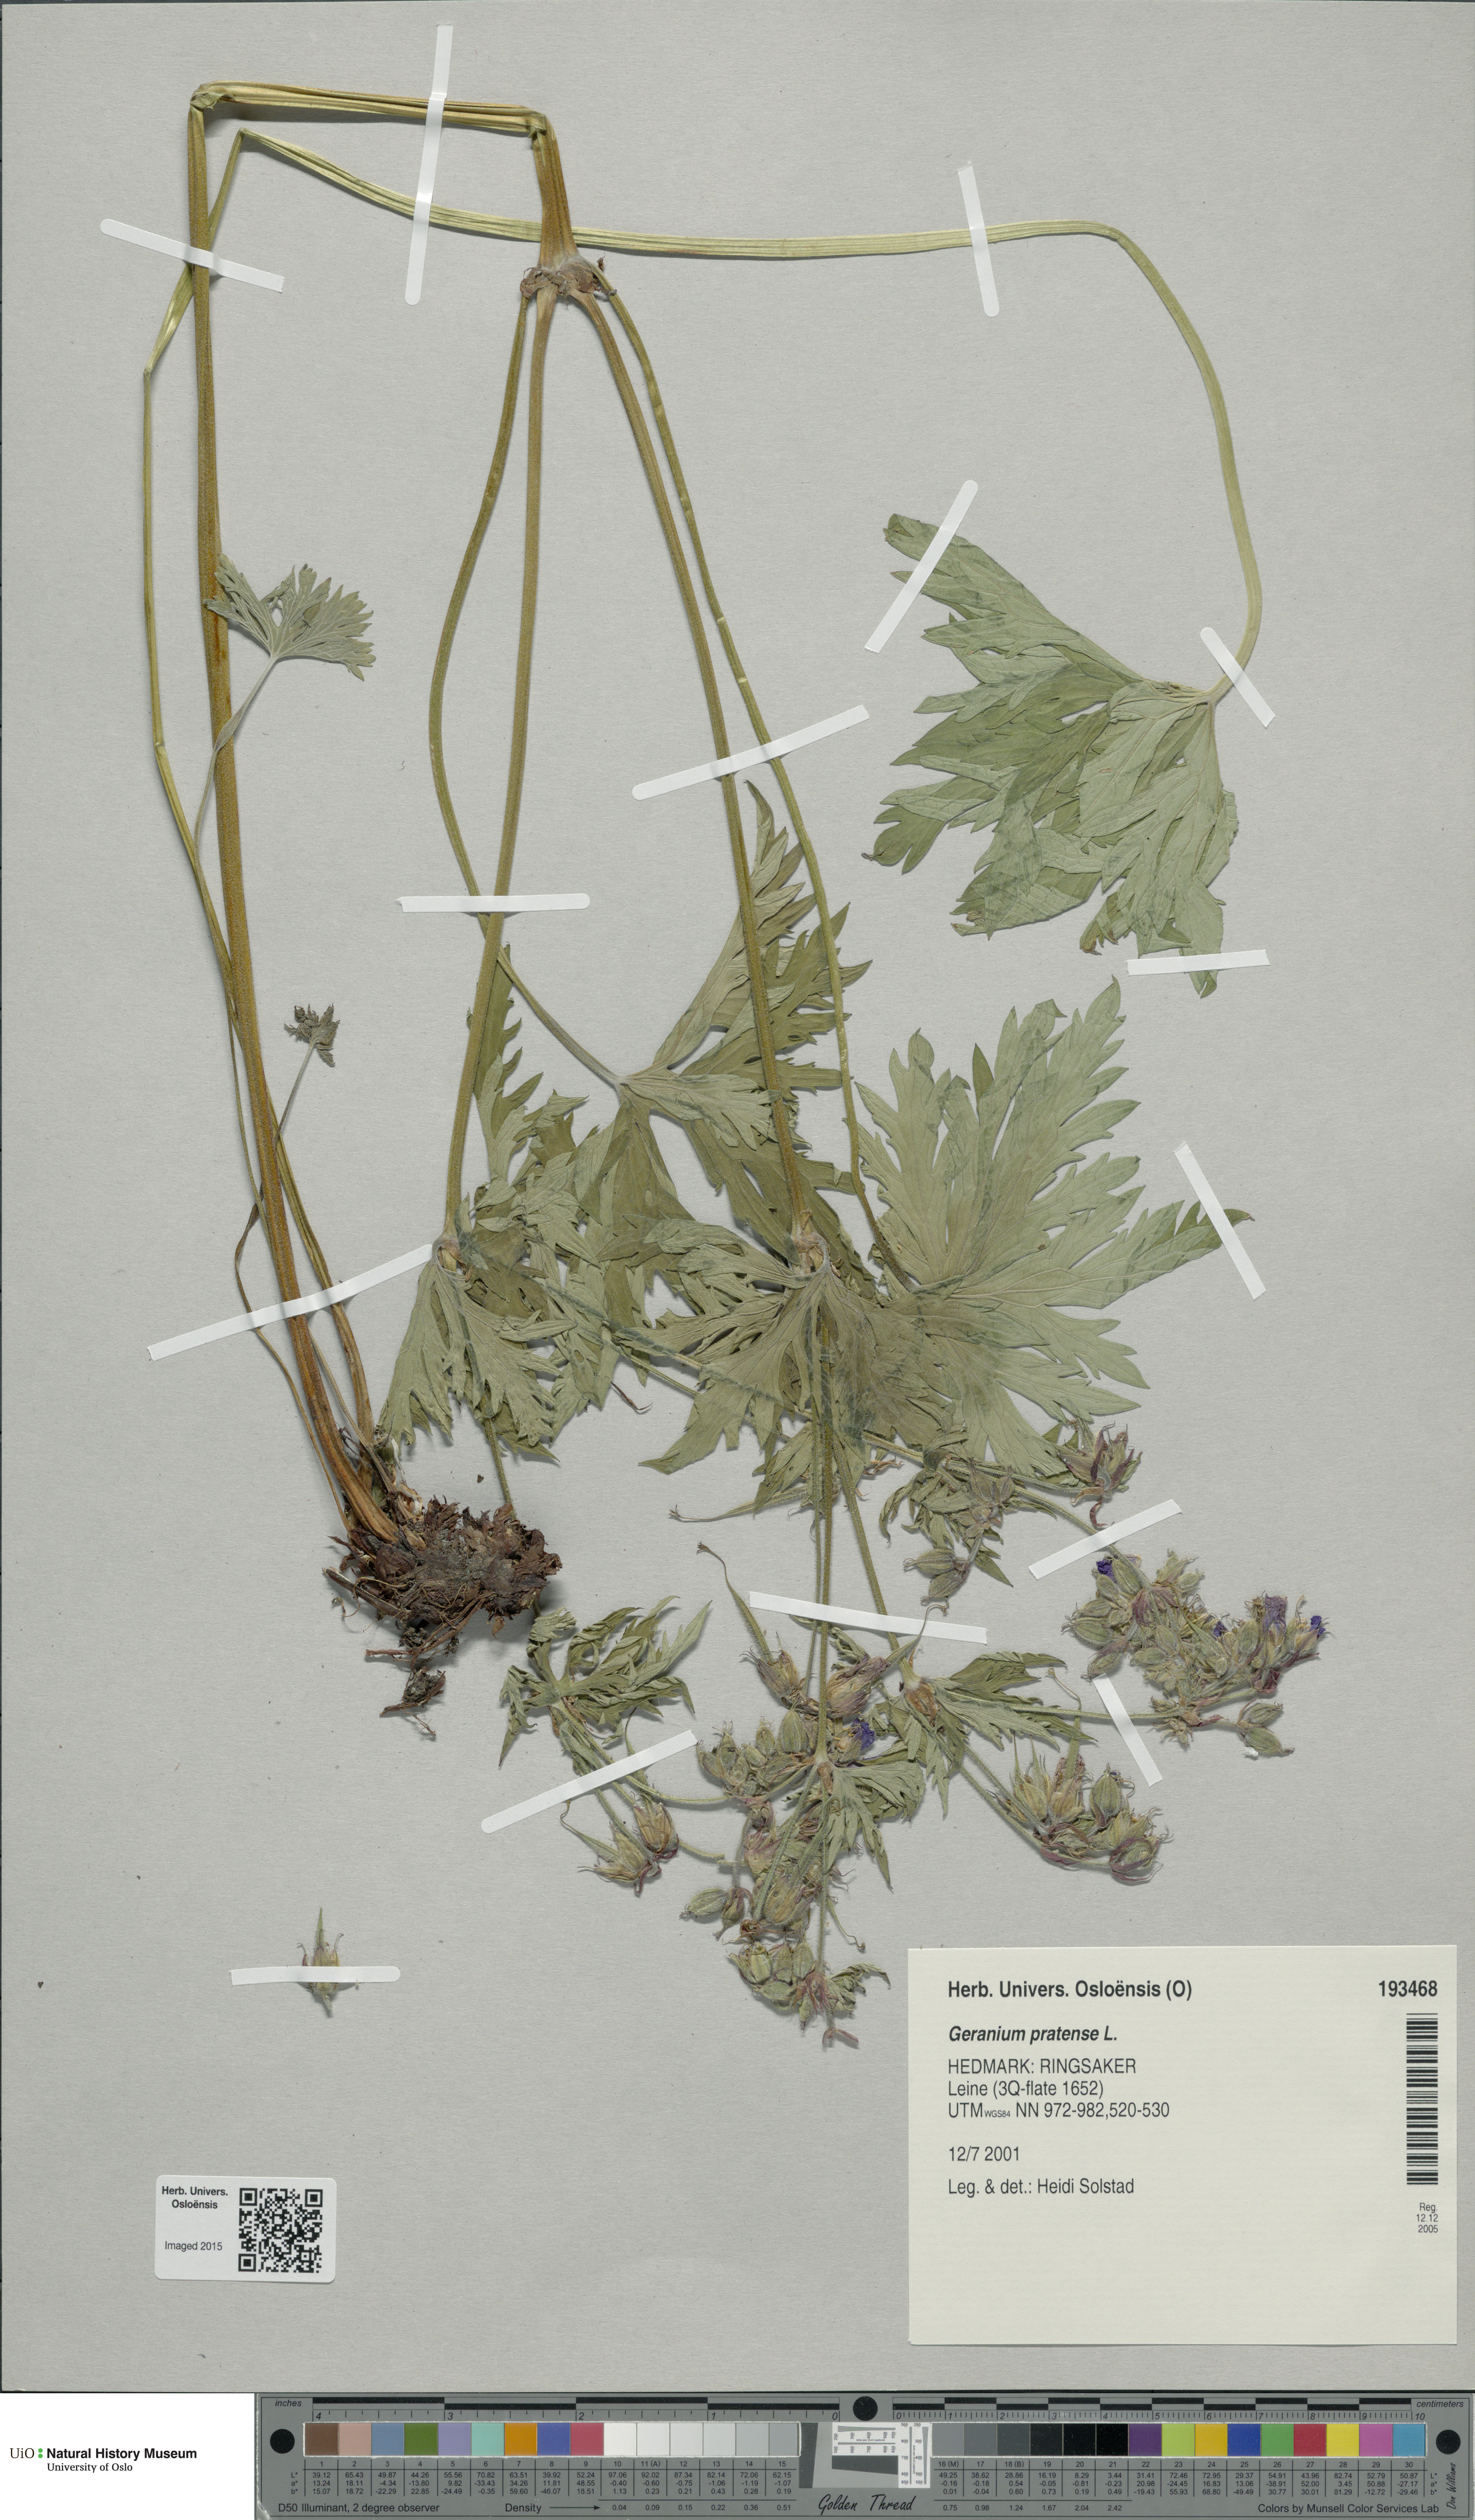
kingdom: Plantae
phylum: Tracheophyta
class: Magnoliopsida
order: Geraniales
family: Geraniaceae
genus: Geranium
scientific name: Geranium pratense
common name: Meadow crane's-bill
